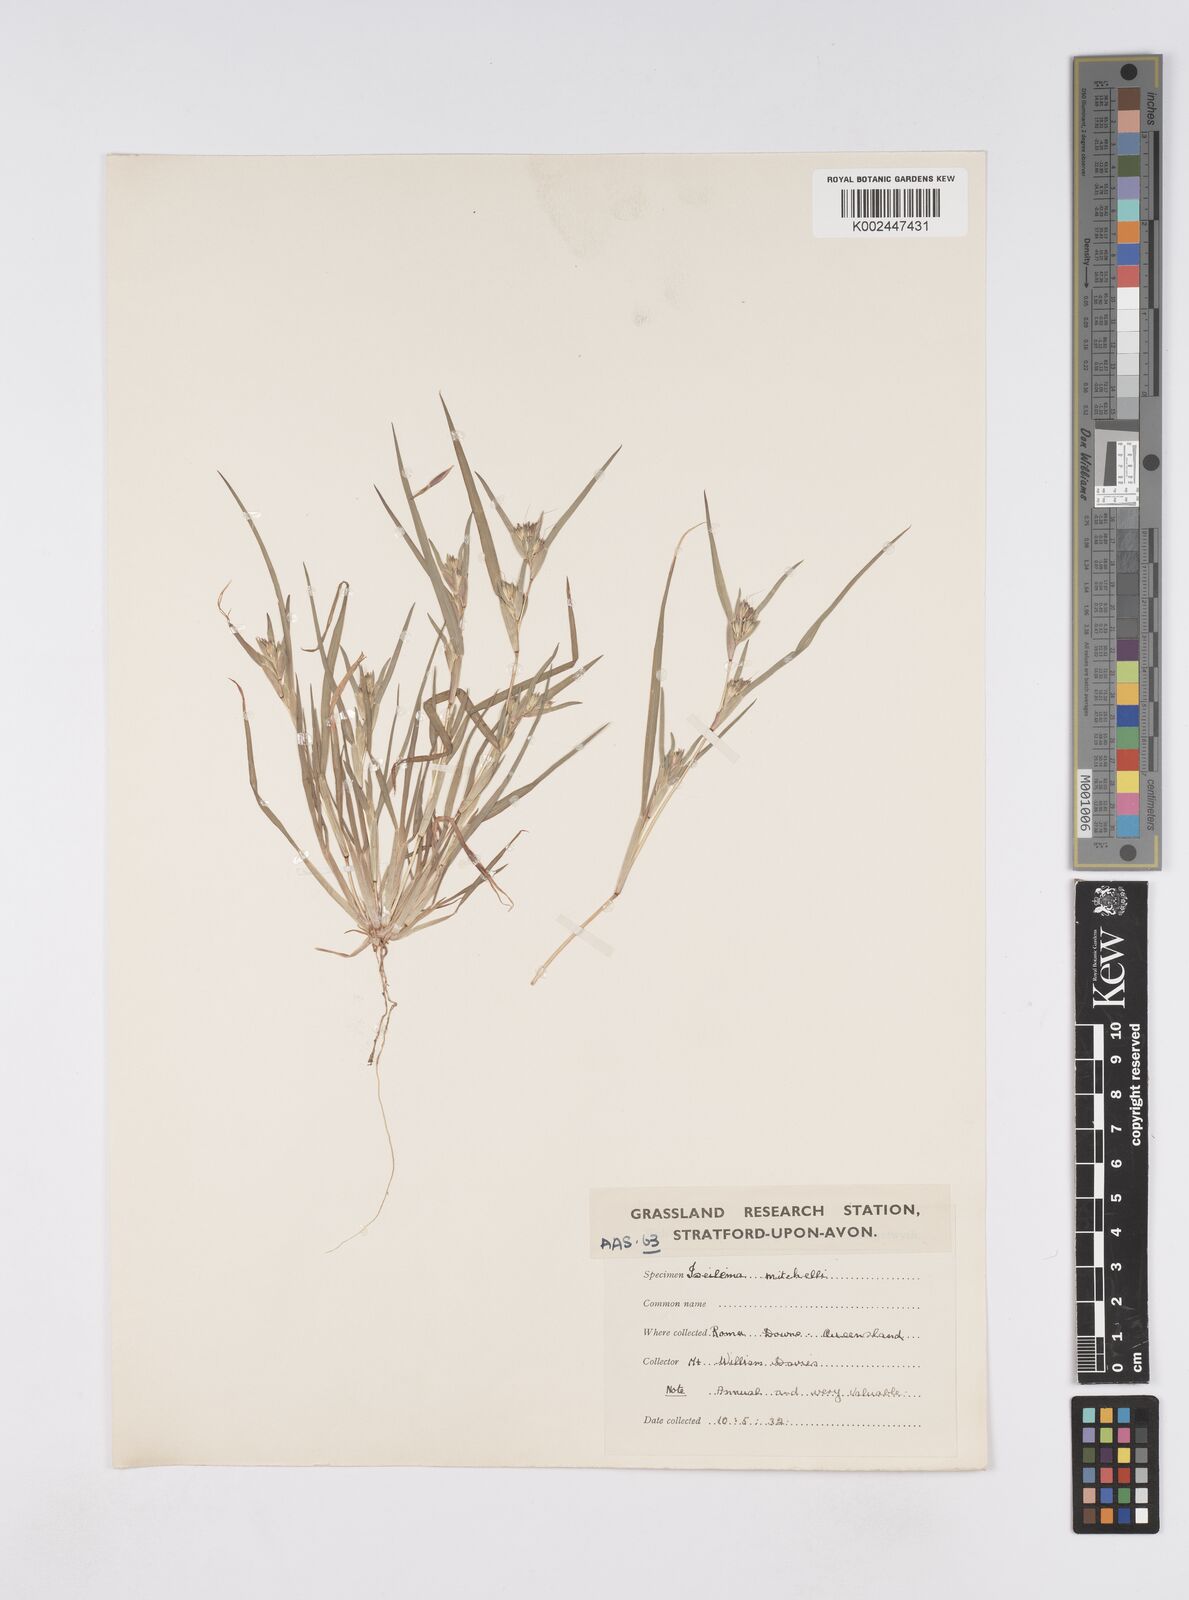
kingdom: Plantae
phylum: Tracheophyta
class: Liliopsida
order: Poales
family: Poaceae
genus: Iseilema
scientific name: Iseilema
